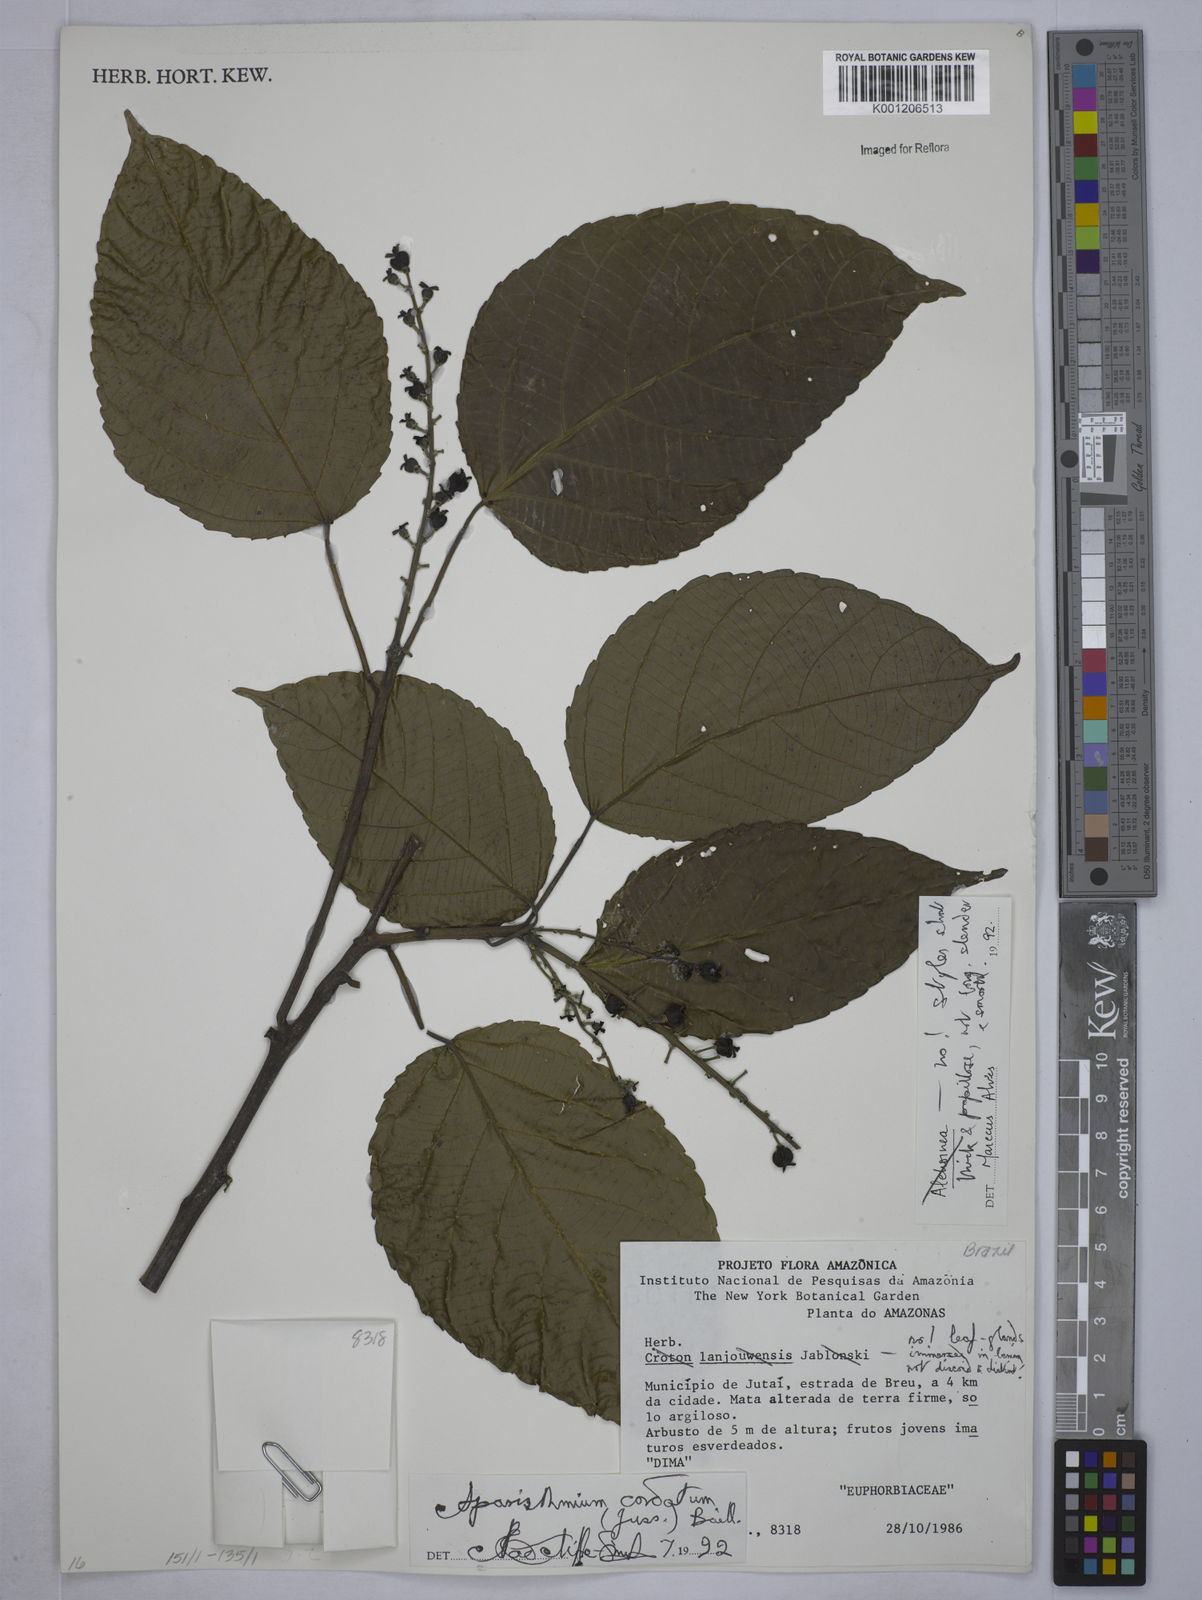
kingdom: Plantae
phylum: Tracheophyta
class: Magnoliopsida
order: Malpighiales
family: Euphorbiaceae
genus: Aparisthmium
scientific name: Aparisthmium cordatum
